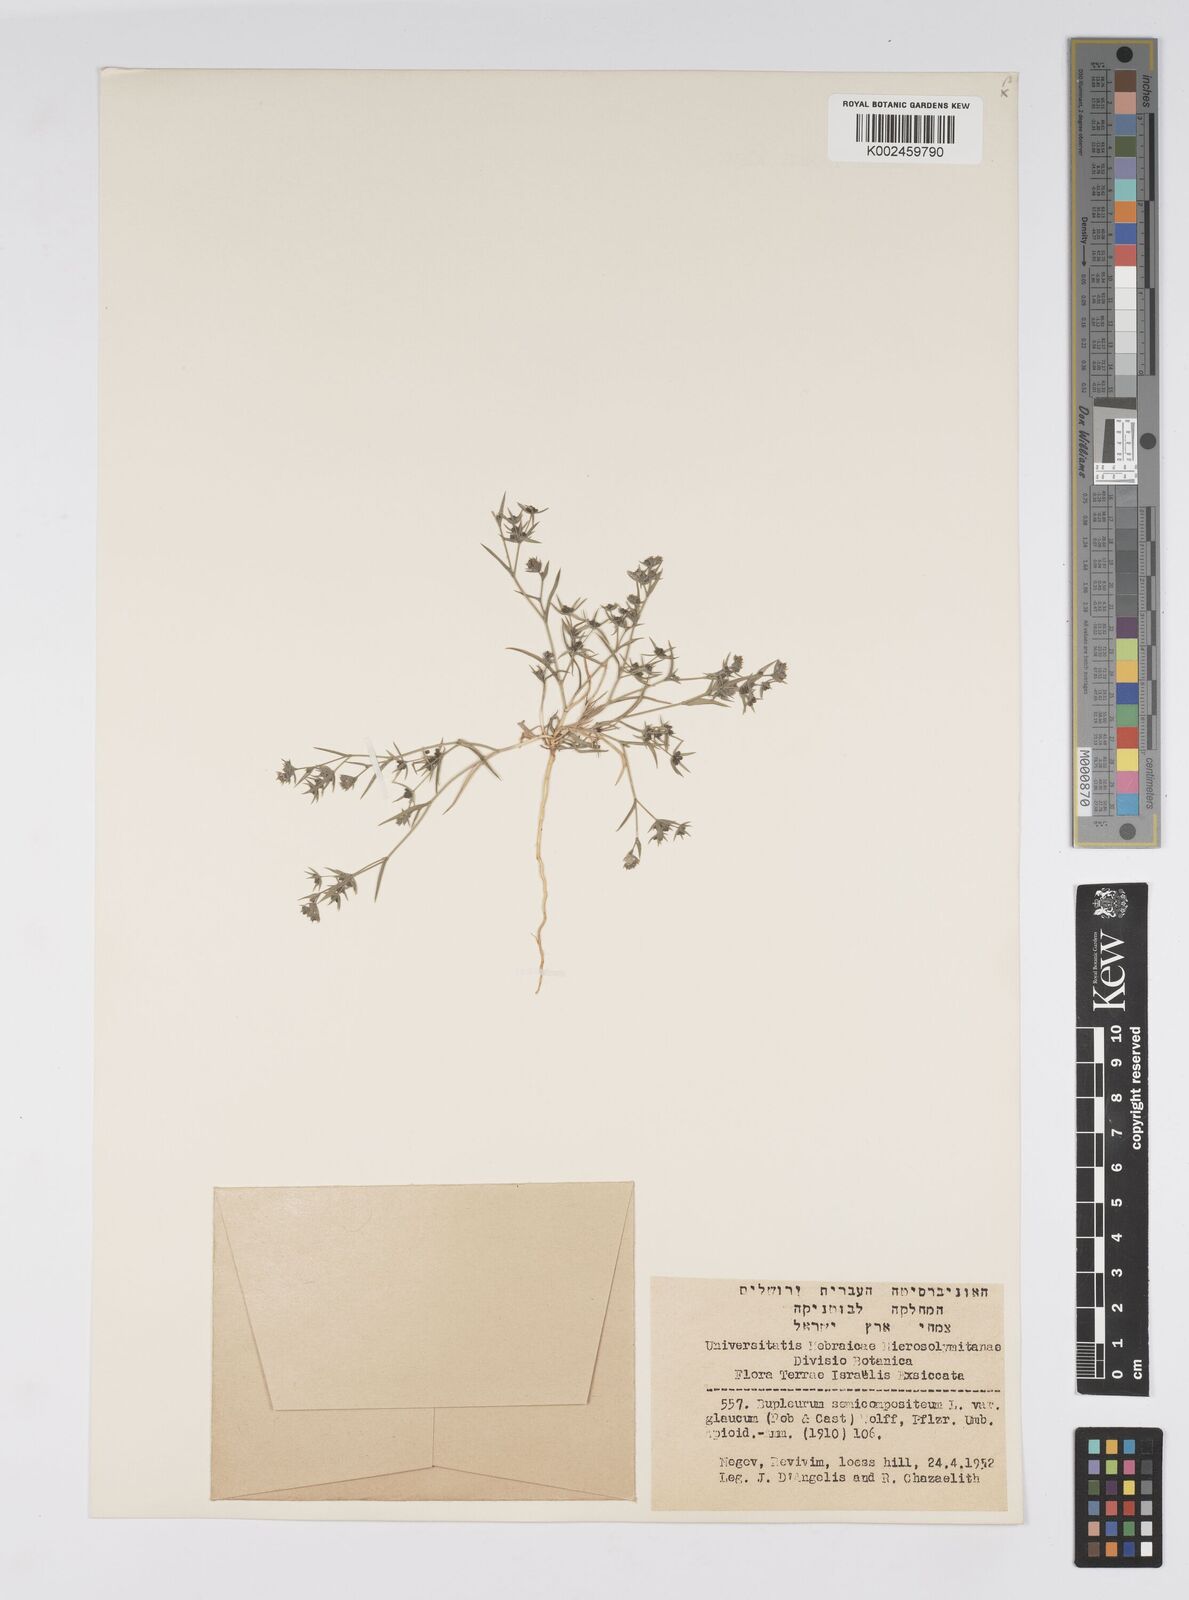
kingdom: Plantae
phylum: Tracheophyta
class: Magnoliopsida
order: Apiales
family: Apiaceae
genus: Bupleurum
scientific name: Bupleurum semicompositum
